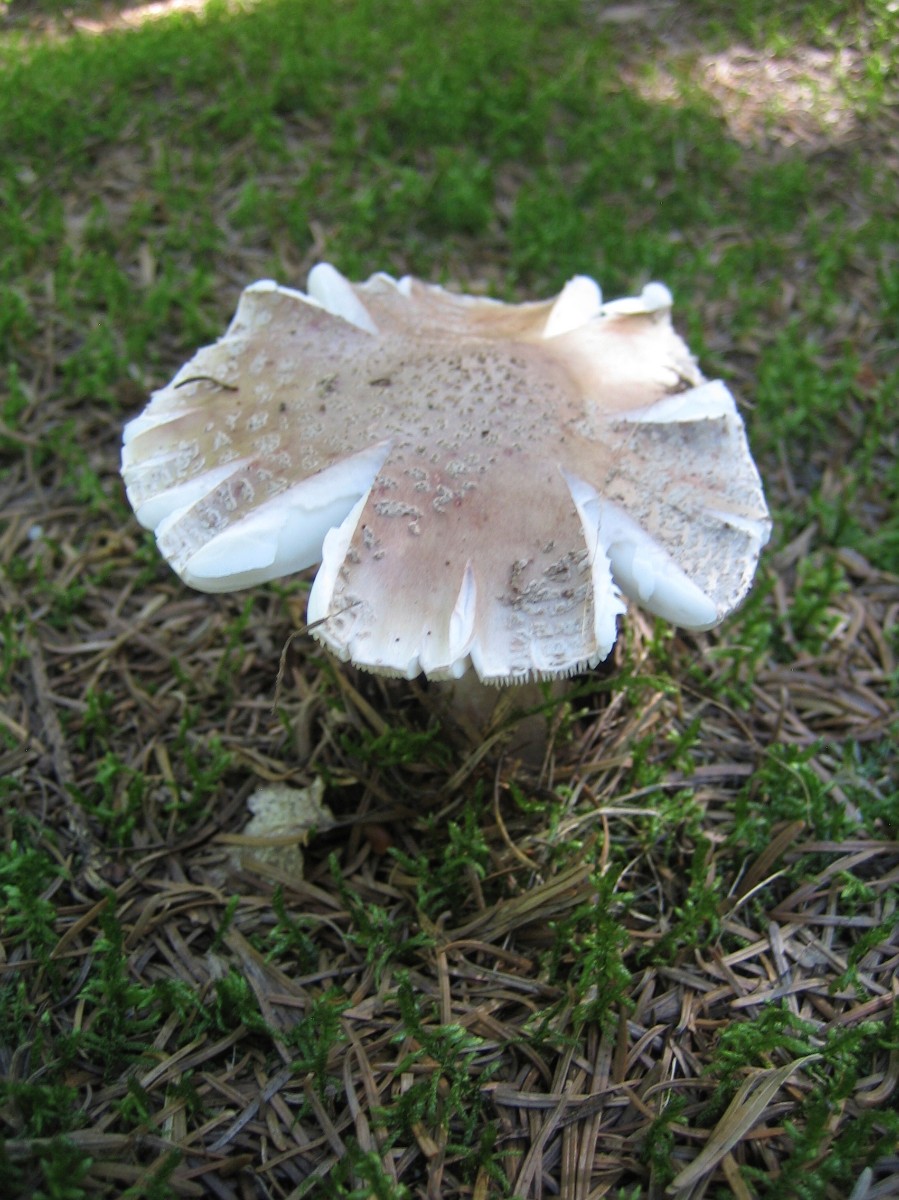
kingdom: Fungi
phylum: Basidiomycota
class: Agaricomycetes
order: Agaricales
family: Amanitaceae
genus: Amanita
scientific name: Amanita rubescens
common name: rødmende fluesvamp
